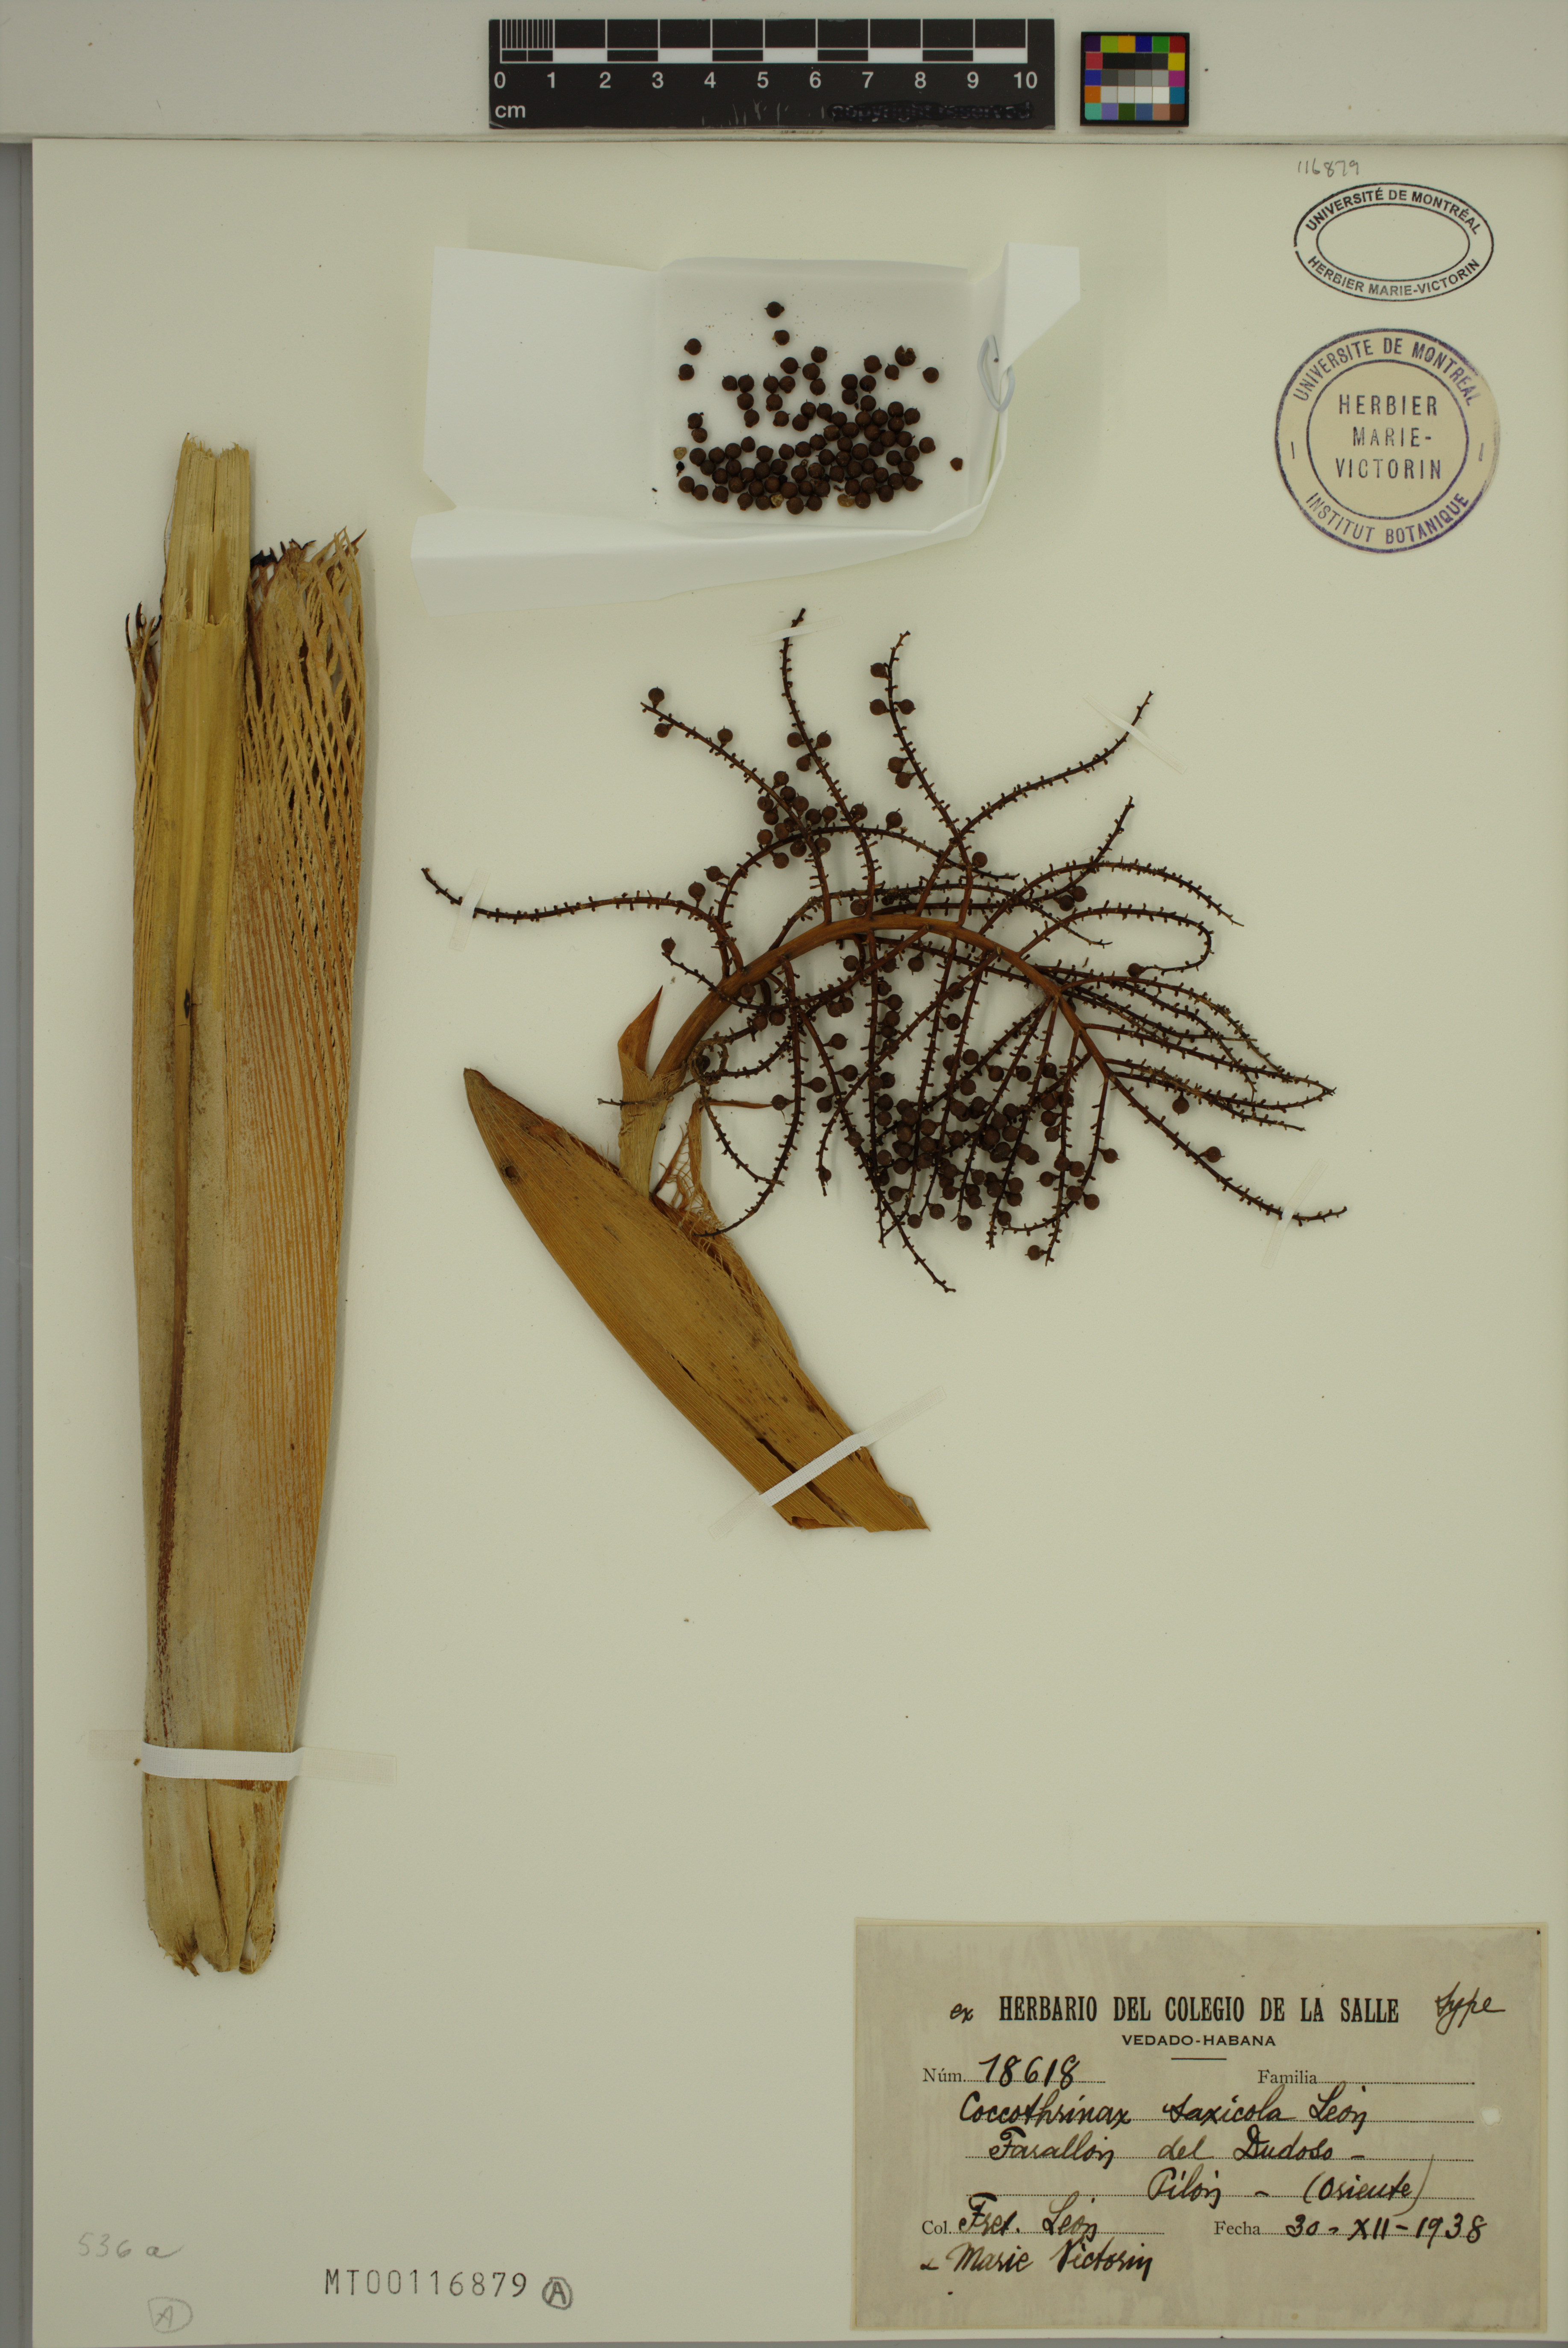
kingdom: Plantae
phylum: Tracheophyta
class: Liliopsida
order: Arecales
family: Arecaceae
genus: Coccothrinax
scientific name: Coccothrinax saxicola
